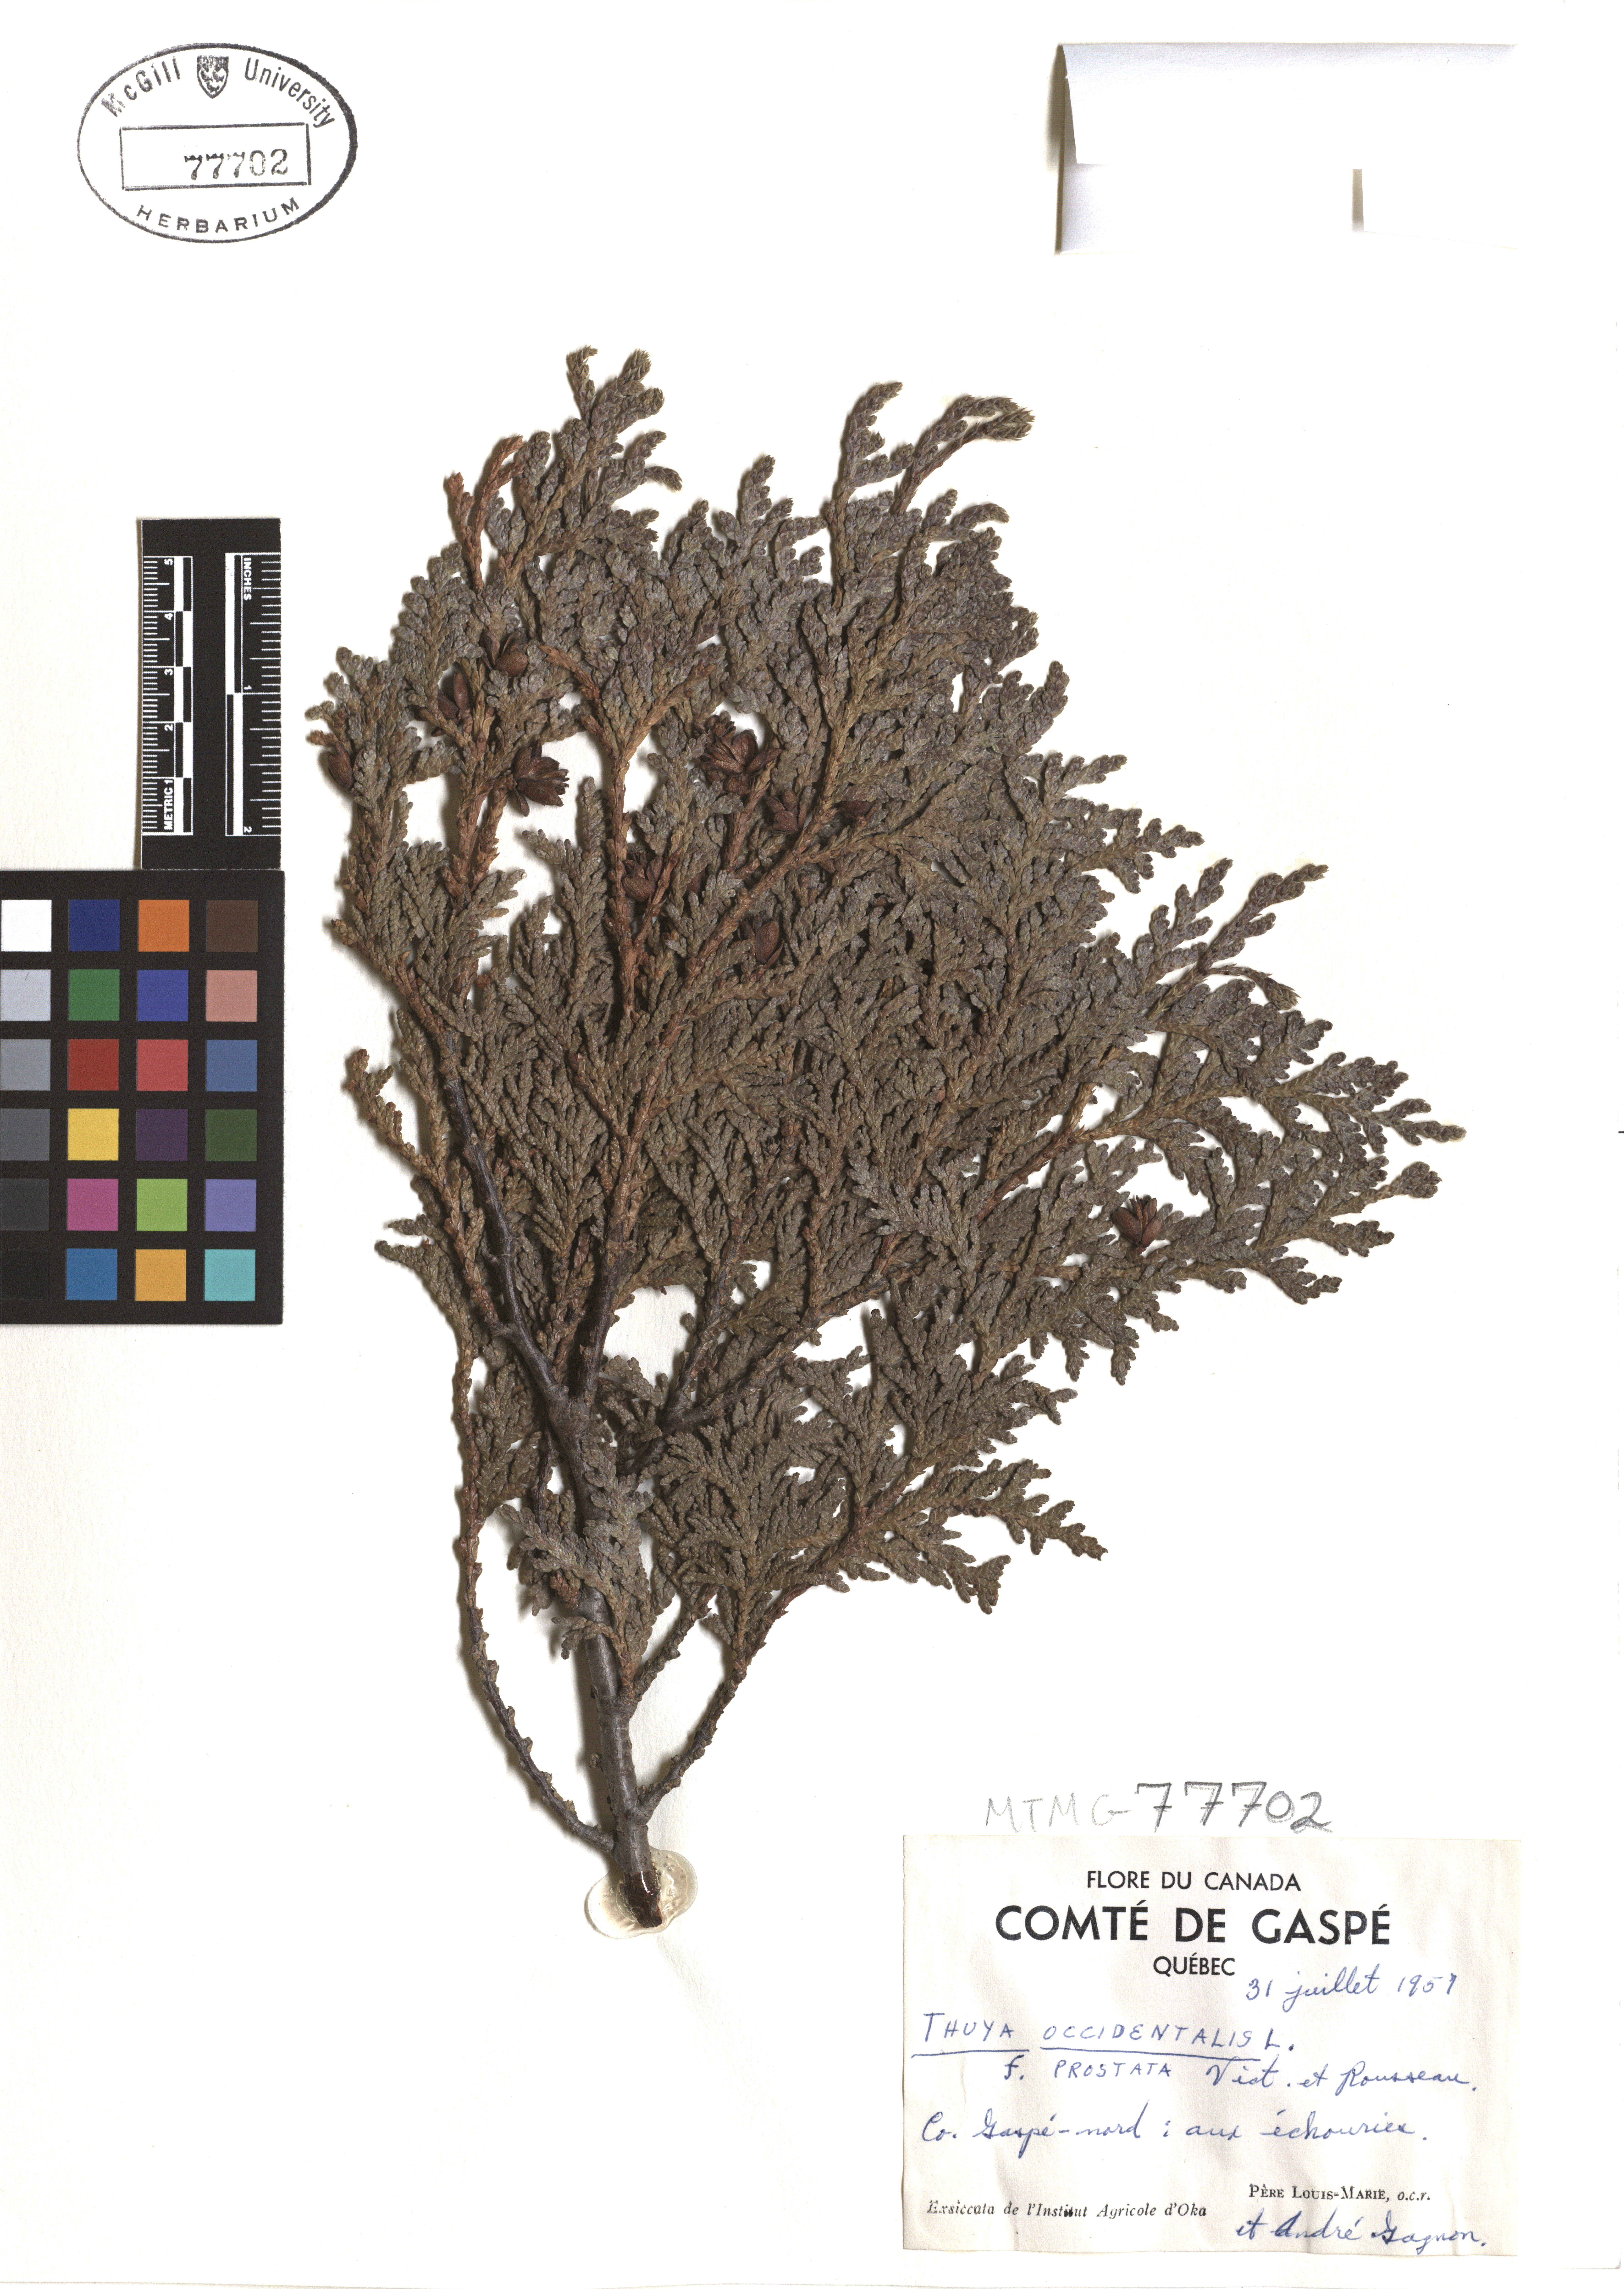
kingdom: Plantae
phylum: Tracheophyta
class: Pinopsida
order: Pinales
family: Cupressaceae
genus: Thuja
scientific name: Thuja occidentalis
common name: Northern white-cedar
